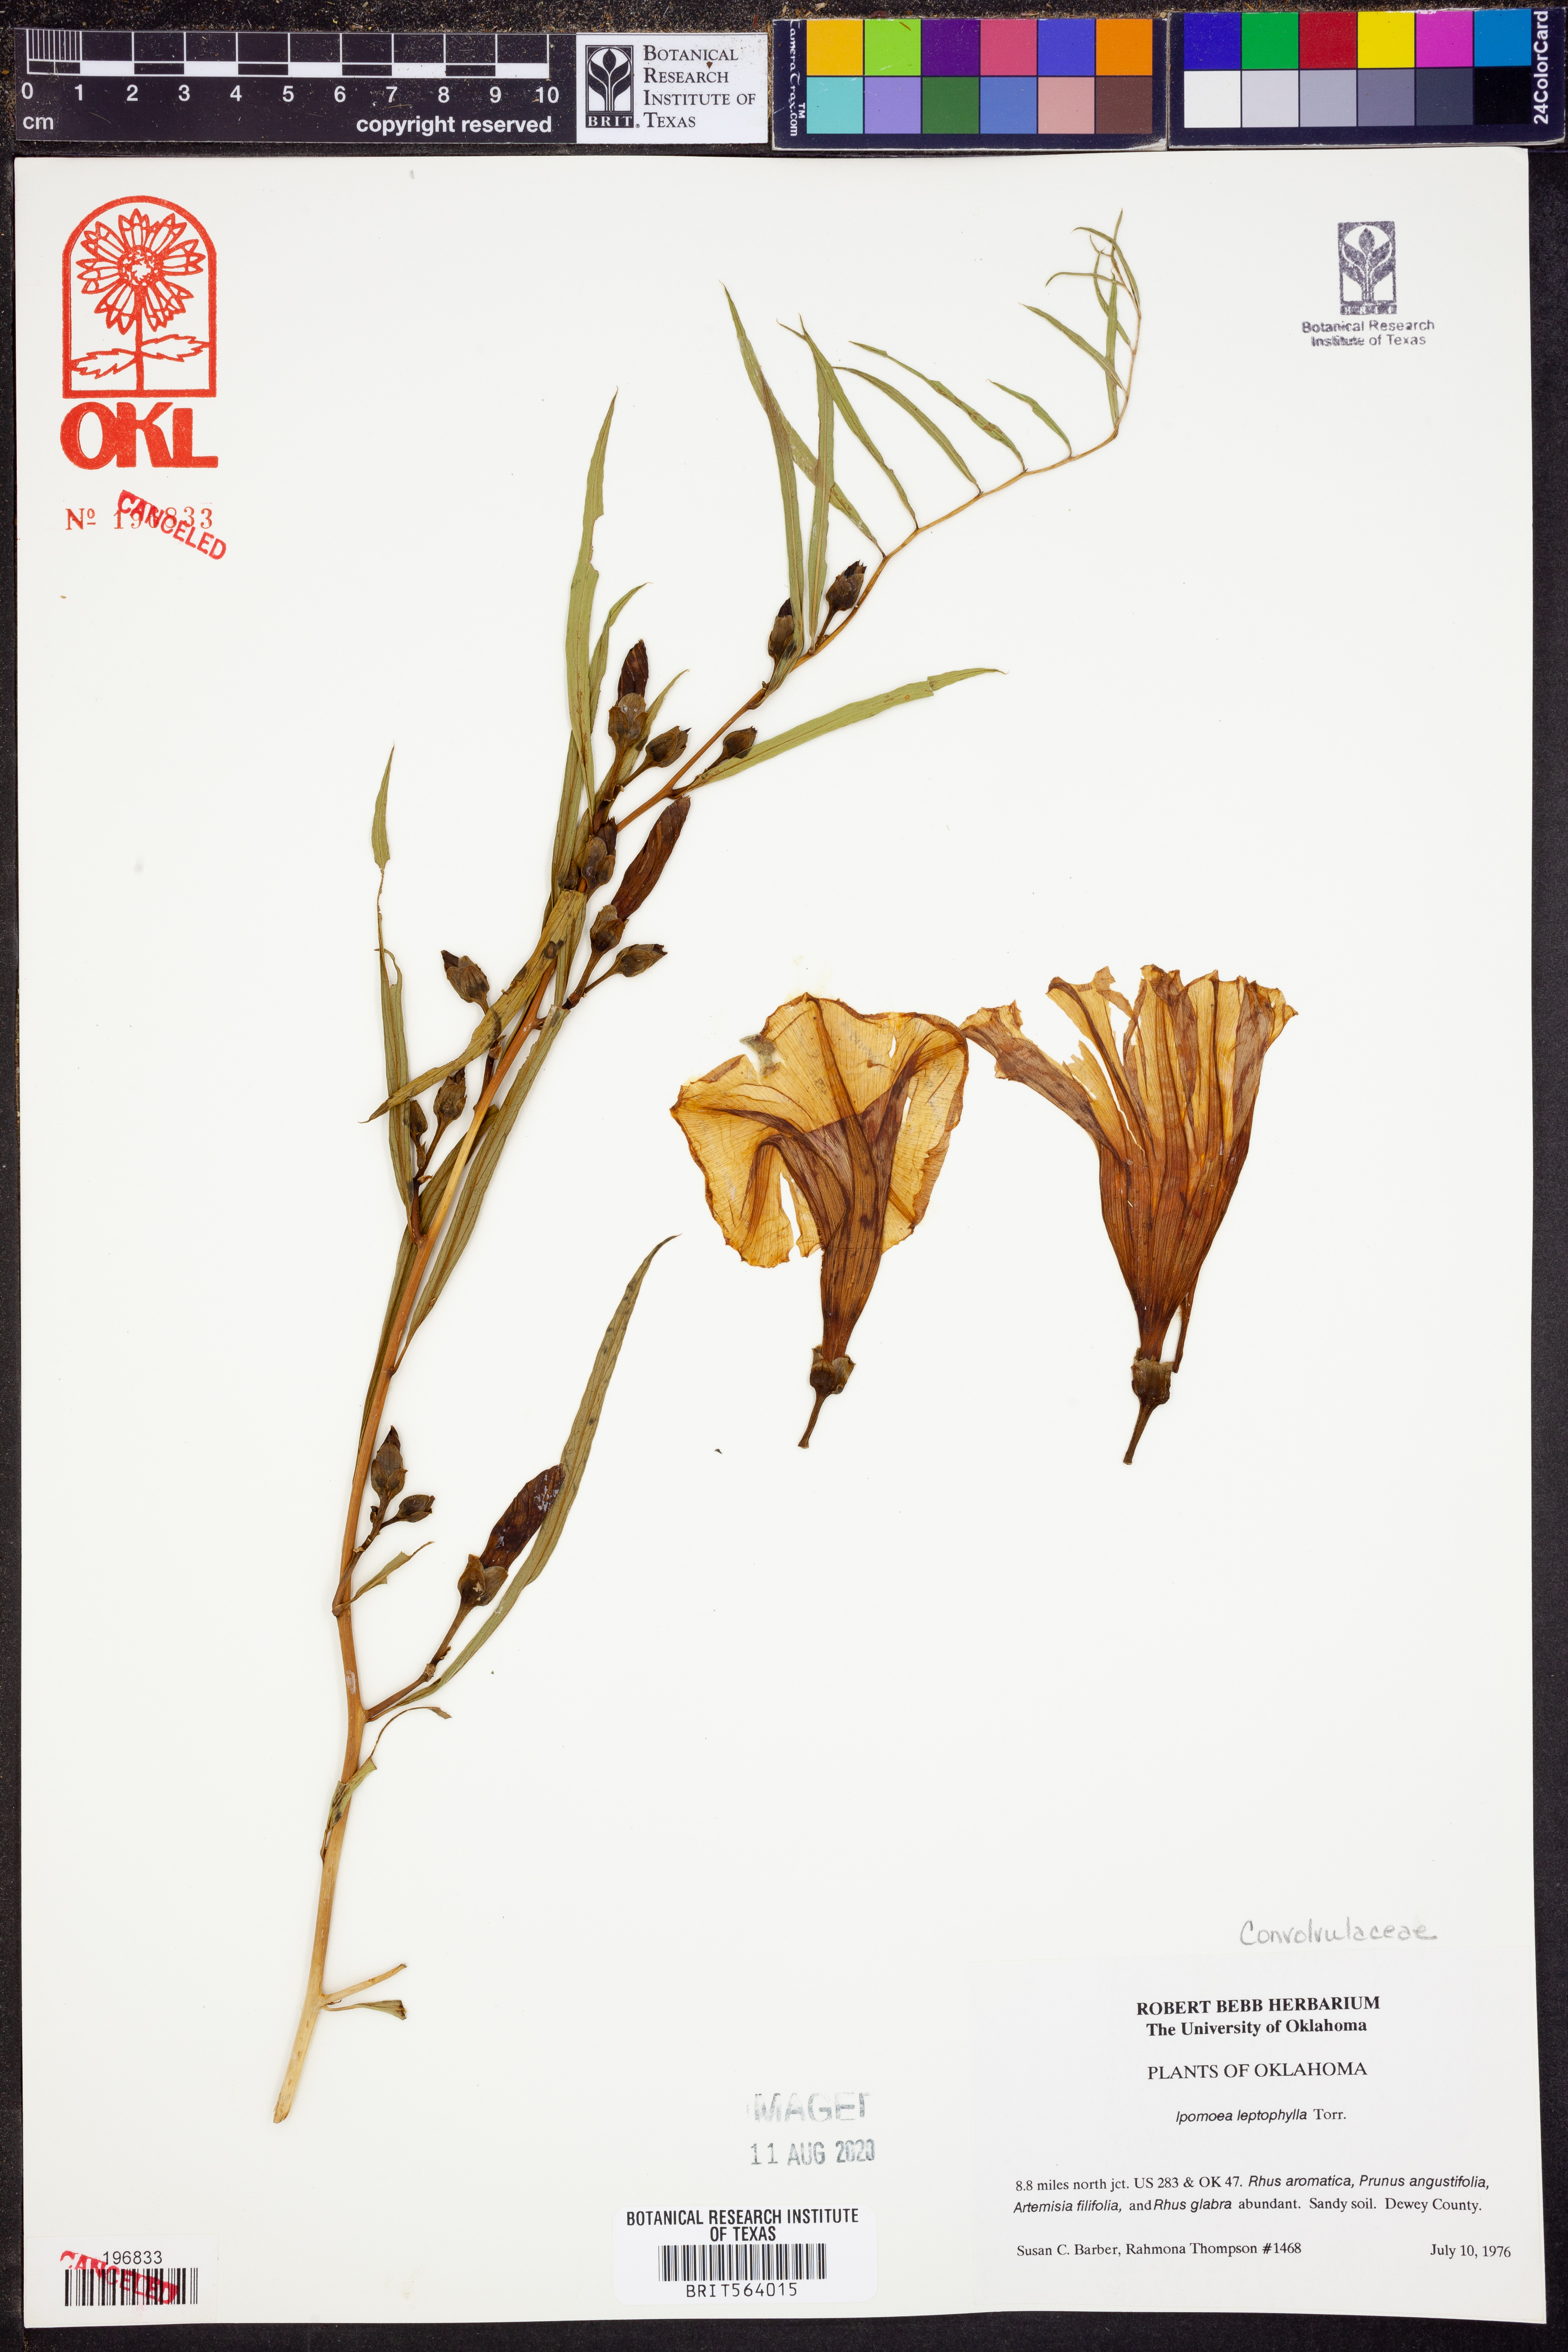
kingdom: Plantae
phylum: Tracheophyta
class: Magnoliopsida
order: Solanales
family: Convolvulaceae
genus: Ipomoea
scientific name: Ipomoea leptophylla
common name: Bush moonflower
